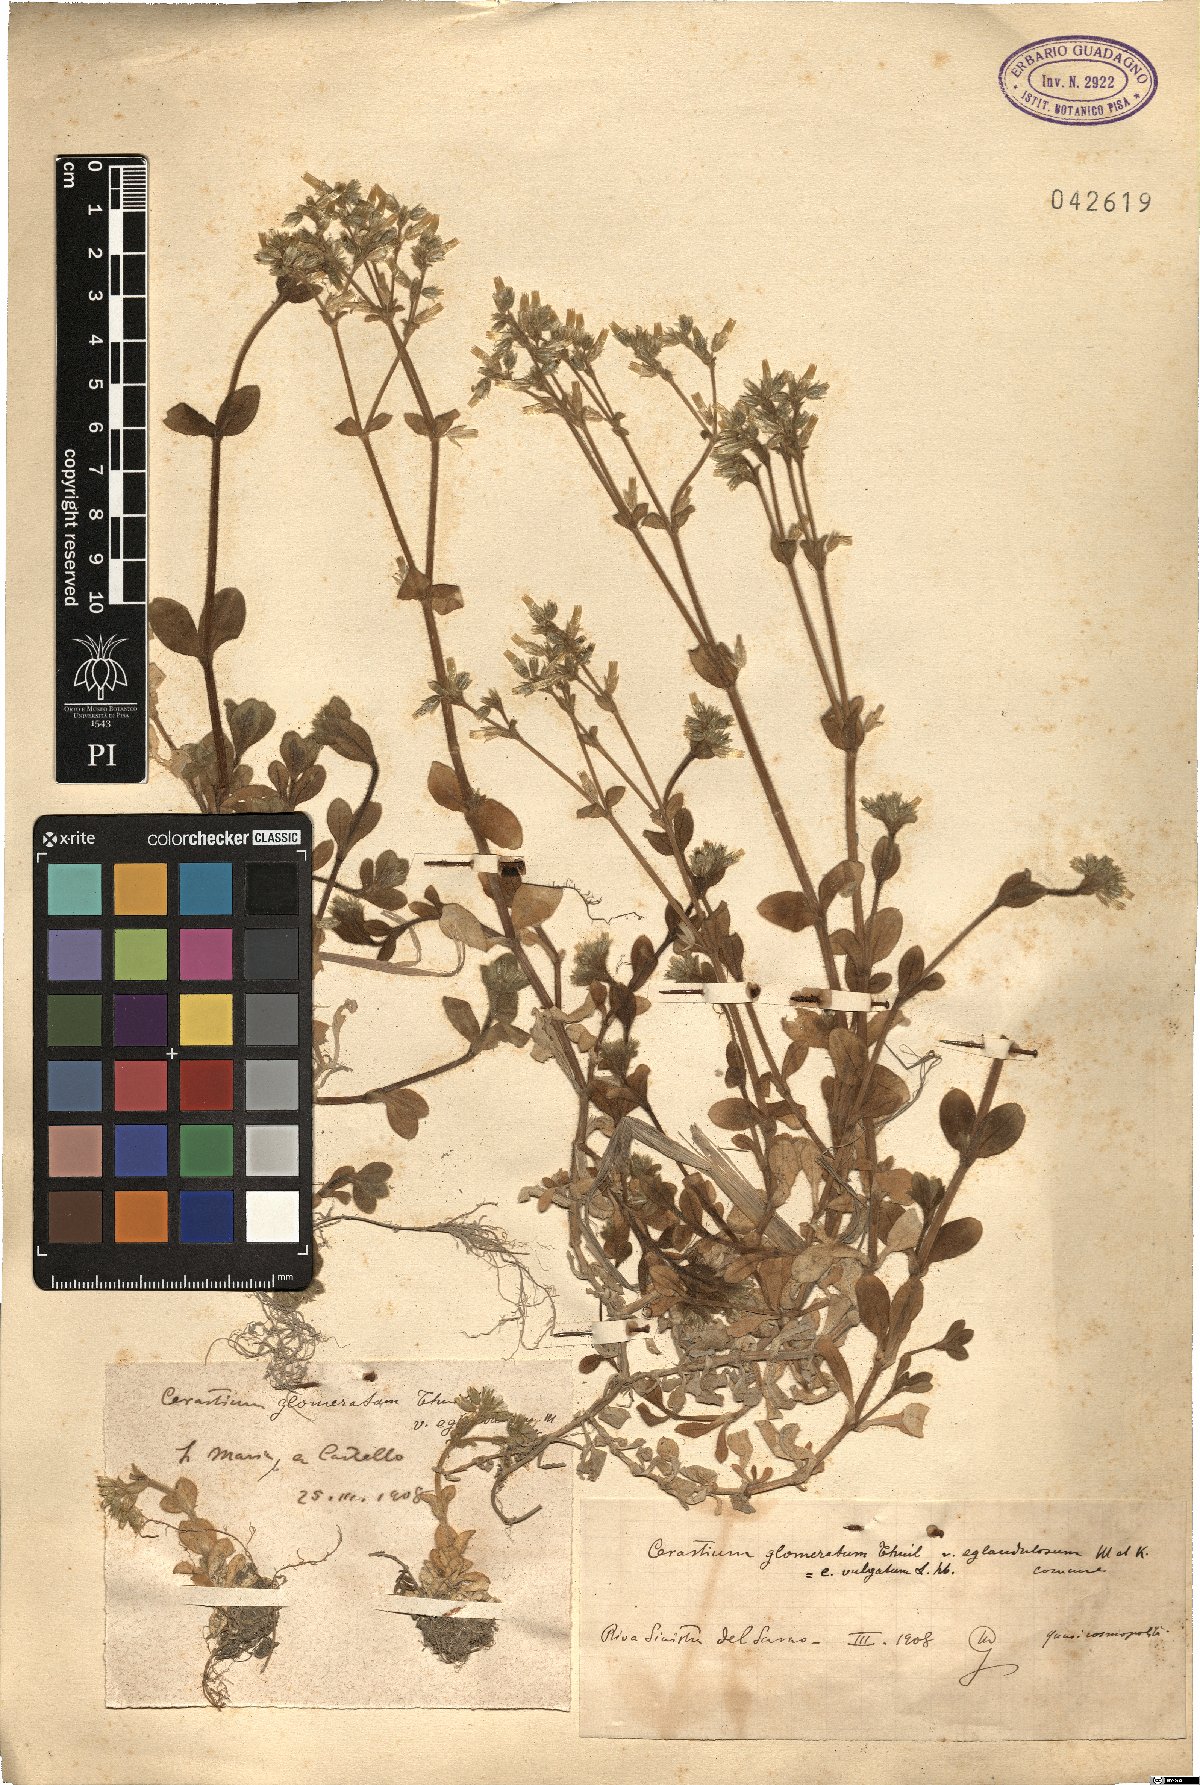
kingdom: Plantae
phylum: Tracheophyta
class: Magnoliopsida
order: Caryophyllales
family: Caryophyllaceae
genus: Cerastium
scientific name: Cerastium glomeratum
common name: Sticky chickweed
